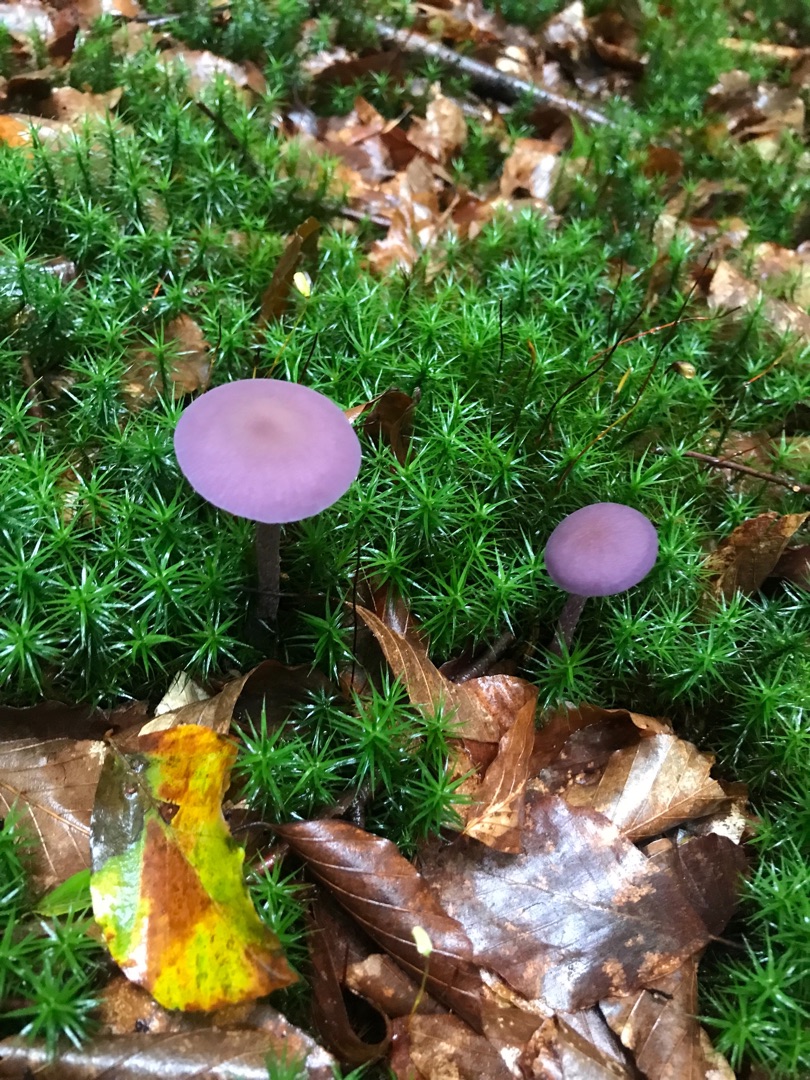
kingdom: Fungi
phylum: Basidiomycota
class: Agaricomycetes
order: Agaricales
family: Hydnangiaceae
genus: Laccaria
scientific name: Laccaria amethystina
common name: Violet ametysthat
